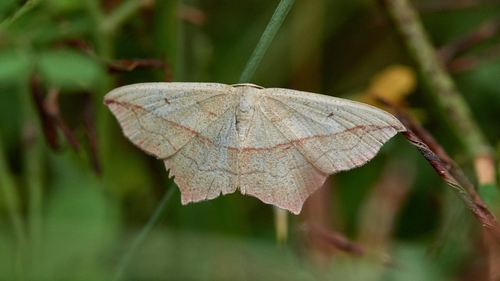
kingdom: Animalia
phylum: Arthropoda
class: Insecta
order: Lepidoptera
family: Geometridae
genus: Timandra
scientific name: Timandra comae
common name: Blood-vein
